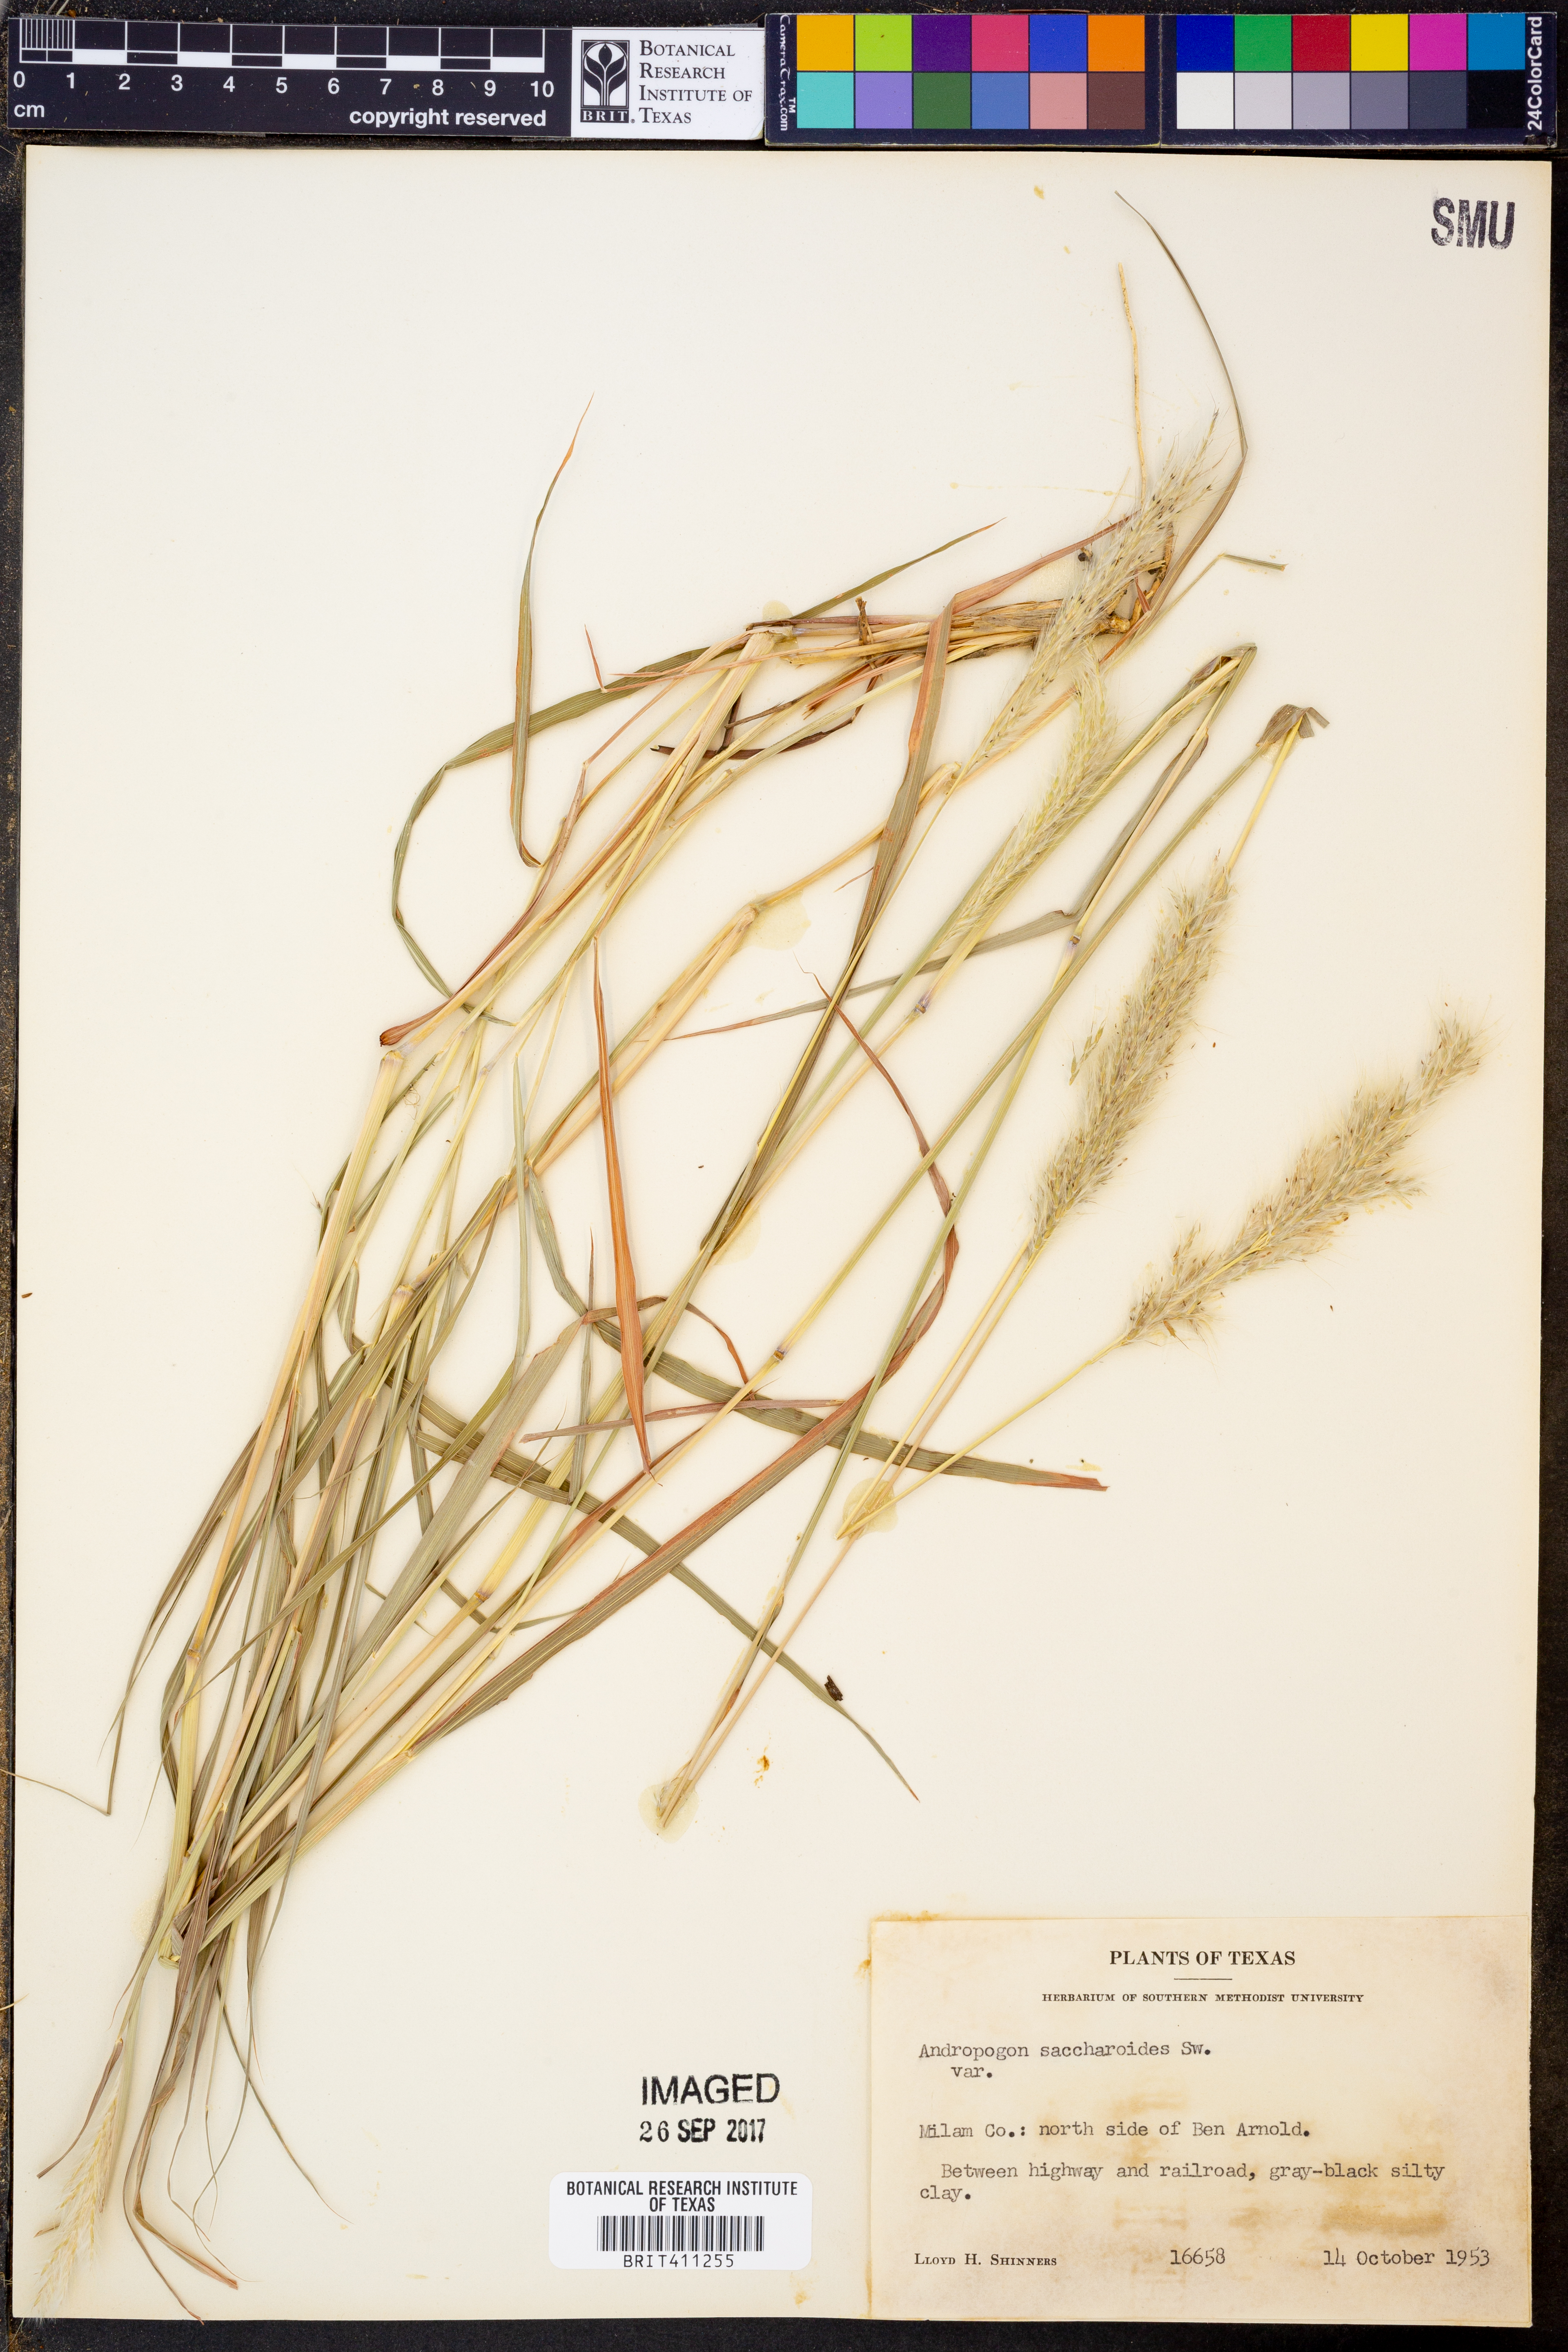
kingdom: Plantae
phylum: Tracheophyta
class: Liliopsida
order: Poales
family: Poaceae
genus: Bothriochloa
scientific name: Bothriochloa saccharoides
